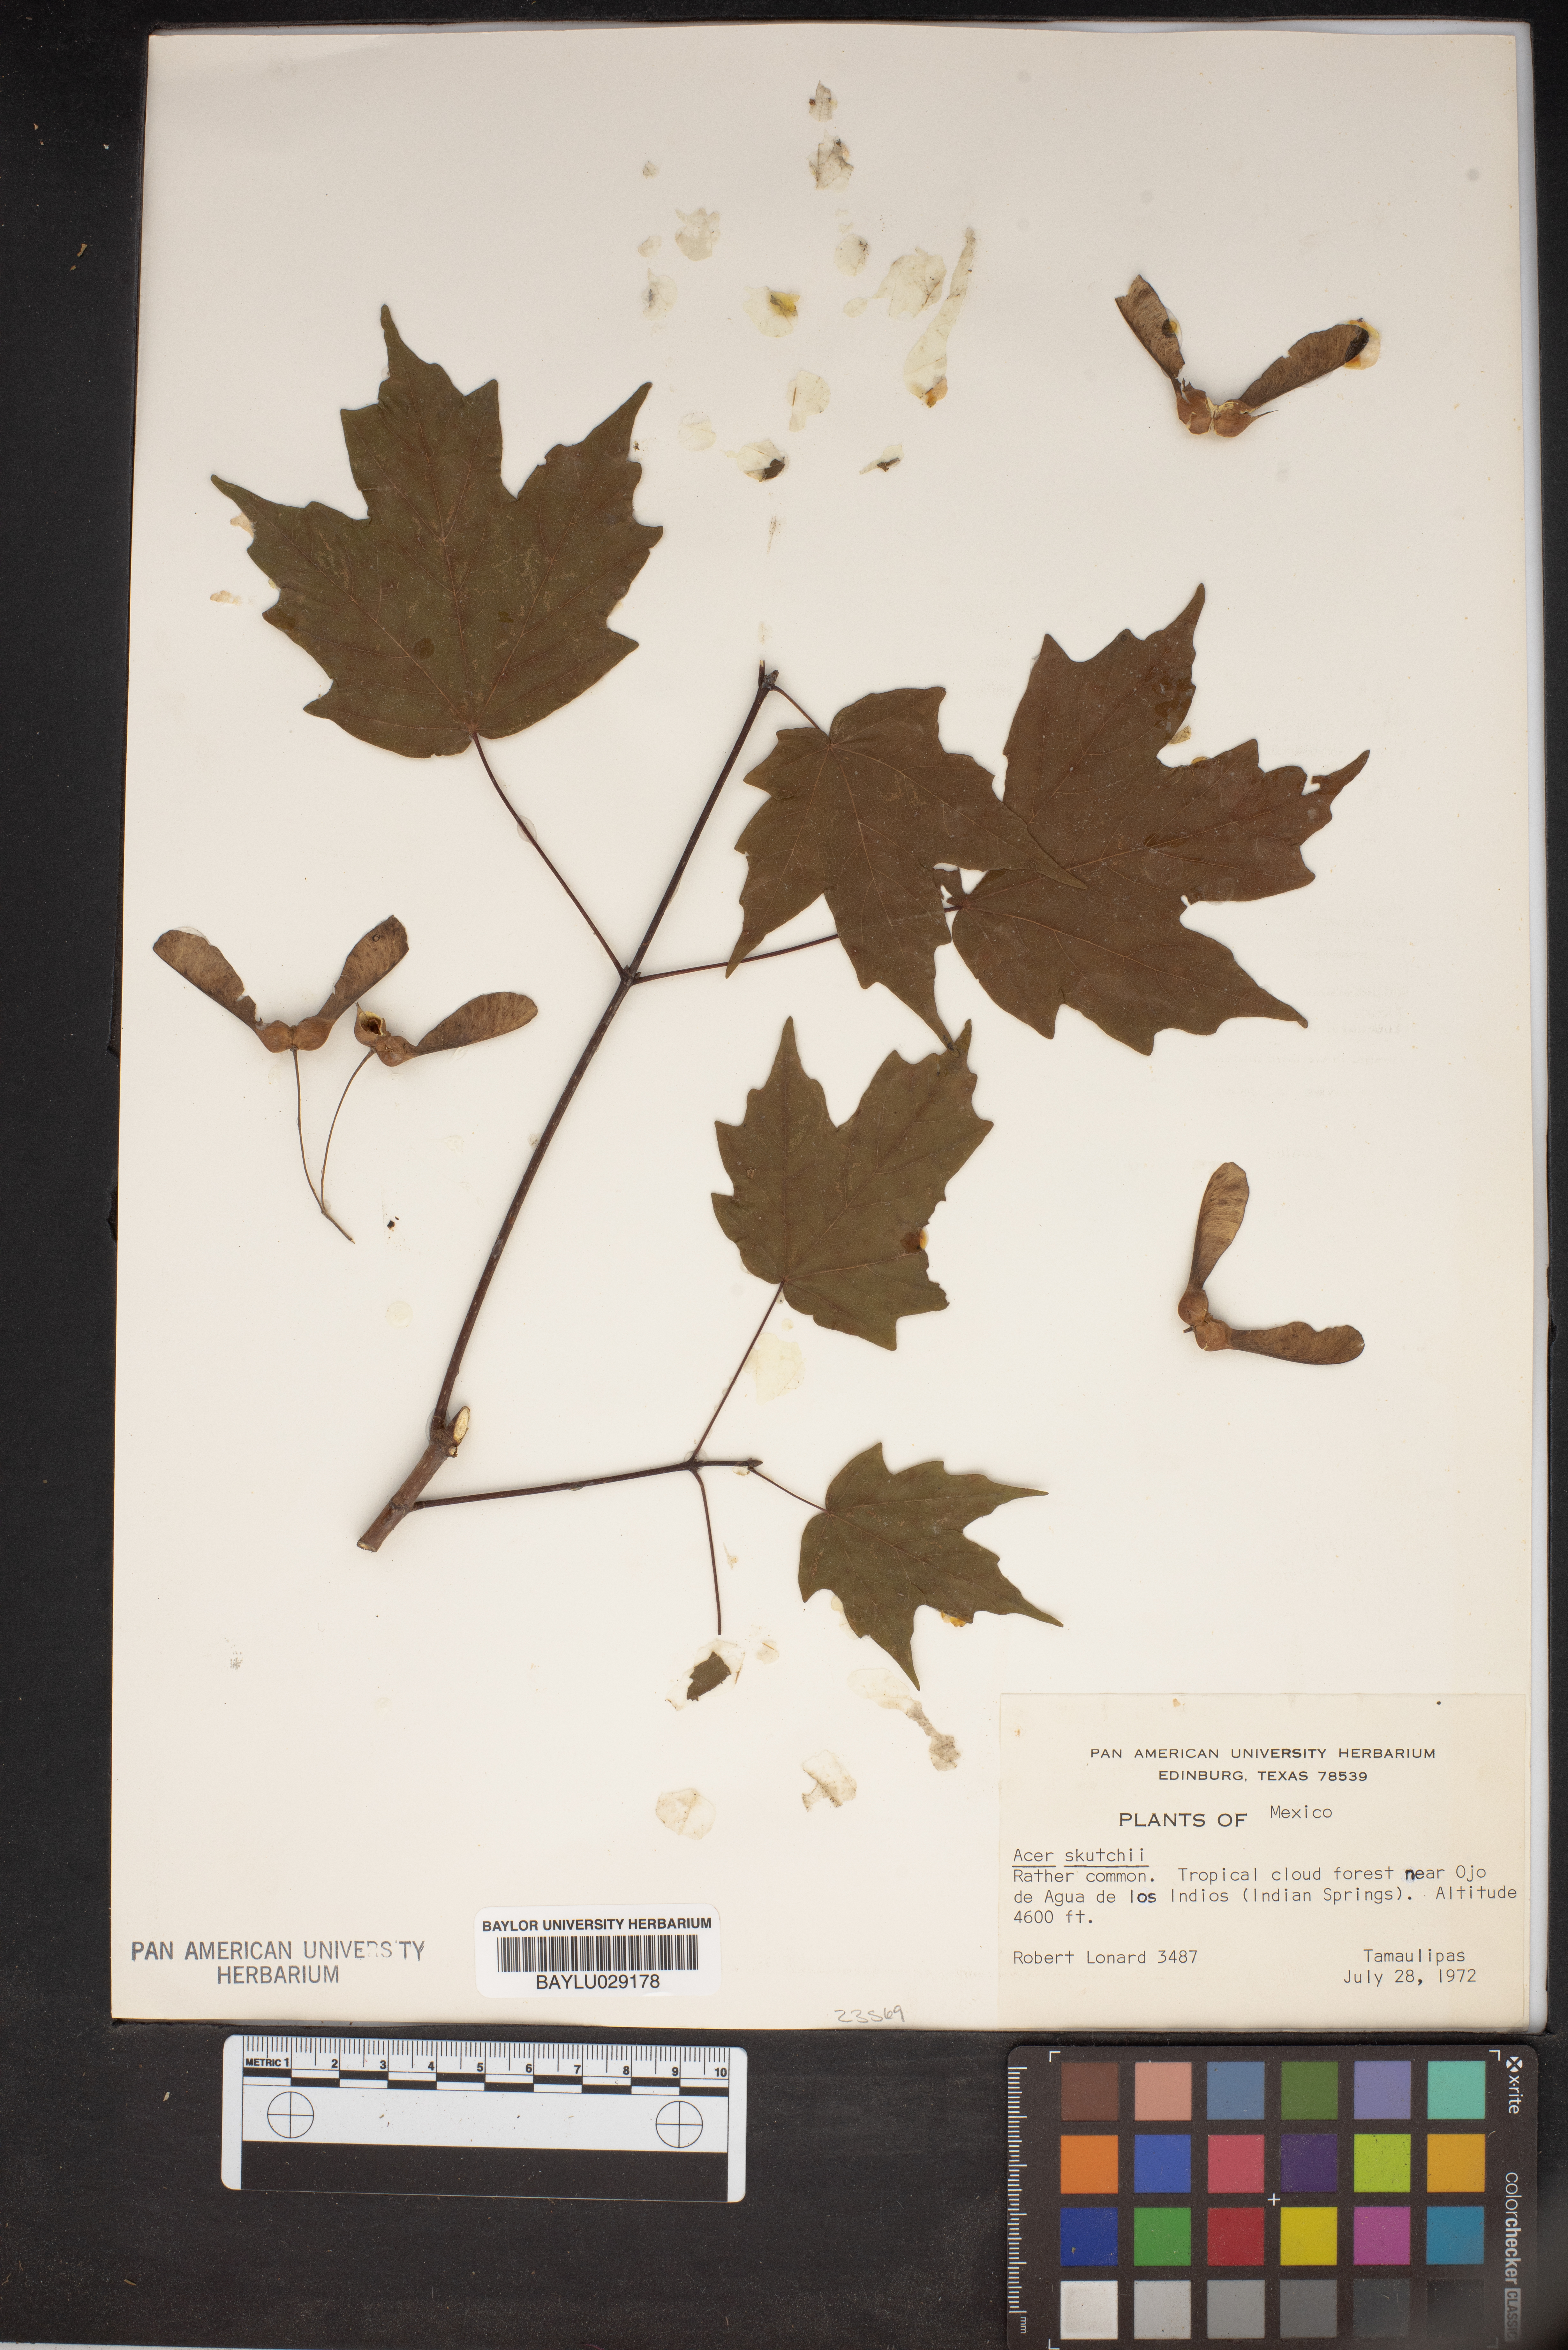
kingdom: Plantae
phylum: Tracheophyta
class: Magnoliopsida
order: Sapindales
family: Sapindaceae
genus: Acer
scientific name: Acer skutchii
